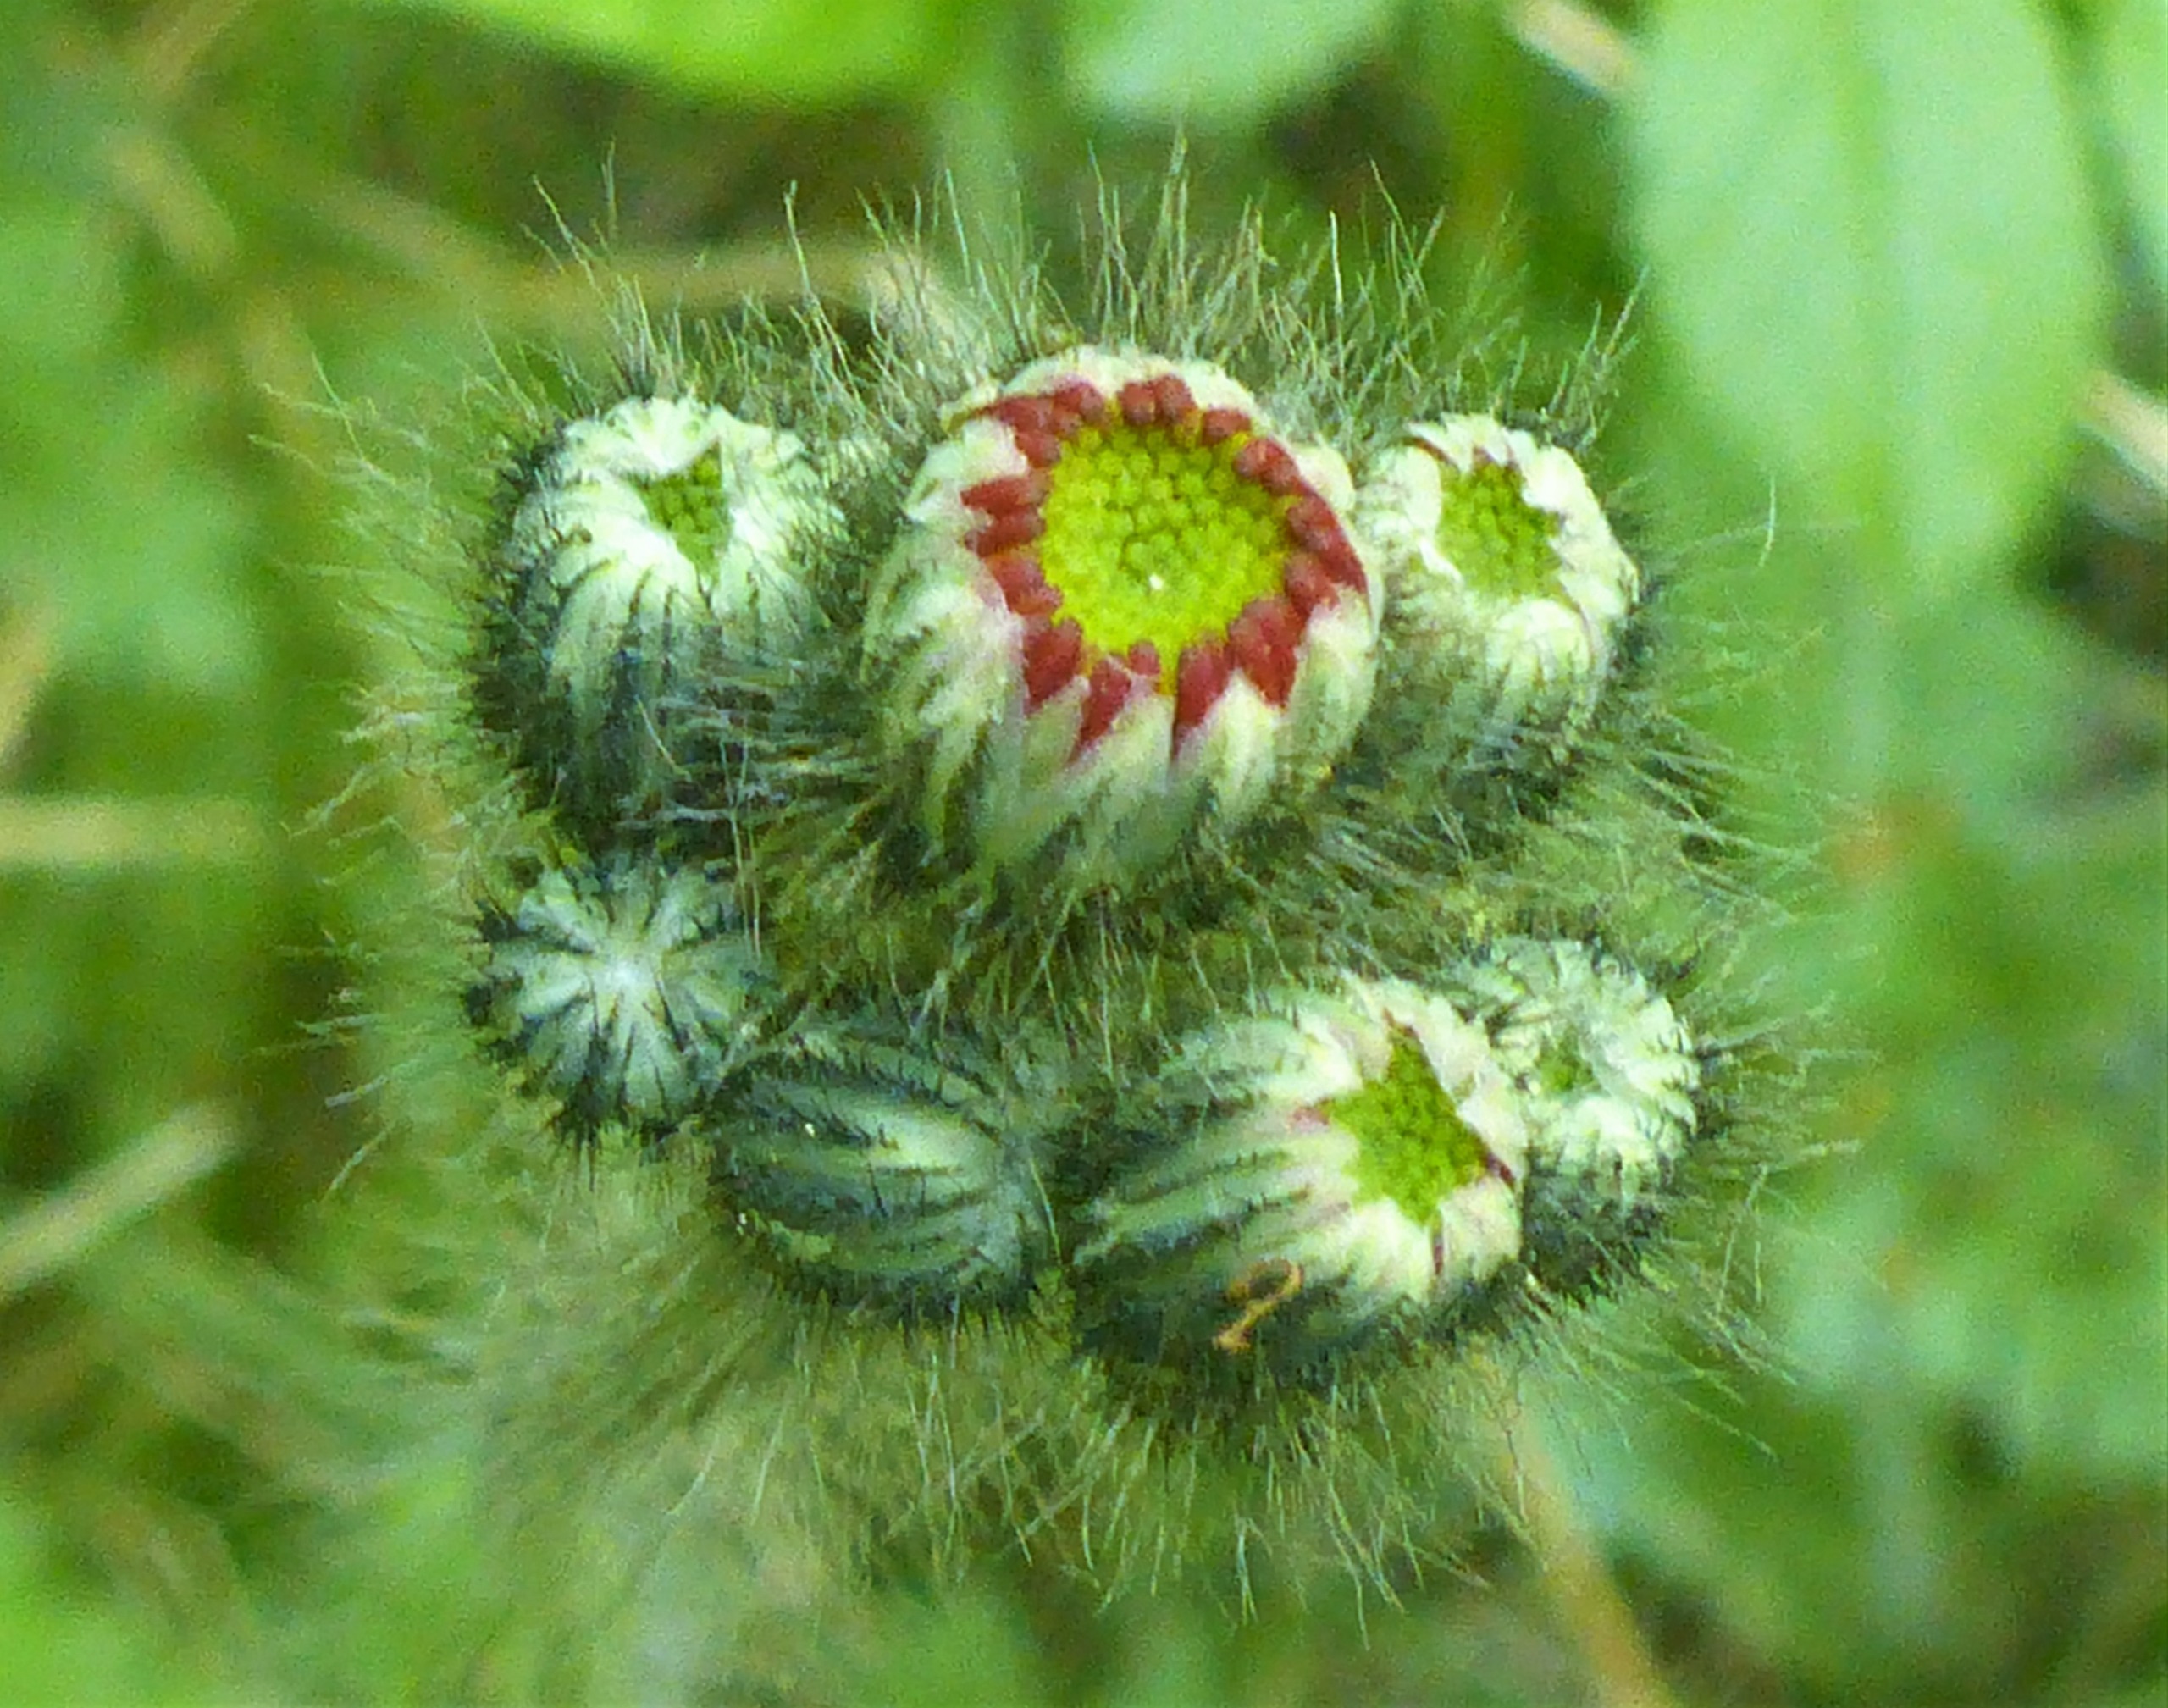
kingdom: Plantae
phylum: Tracheophyta
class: Magnoliopsida
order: Asterales
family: Asteraceae
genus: Pilosella
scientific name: Pilosella aurantiaca
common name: Pomerans-høgeurt
